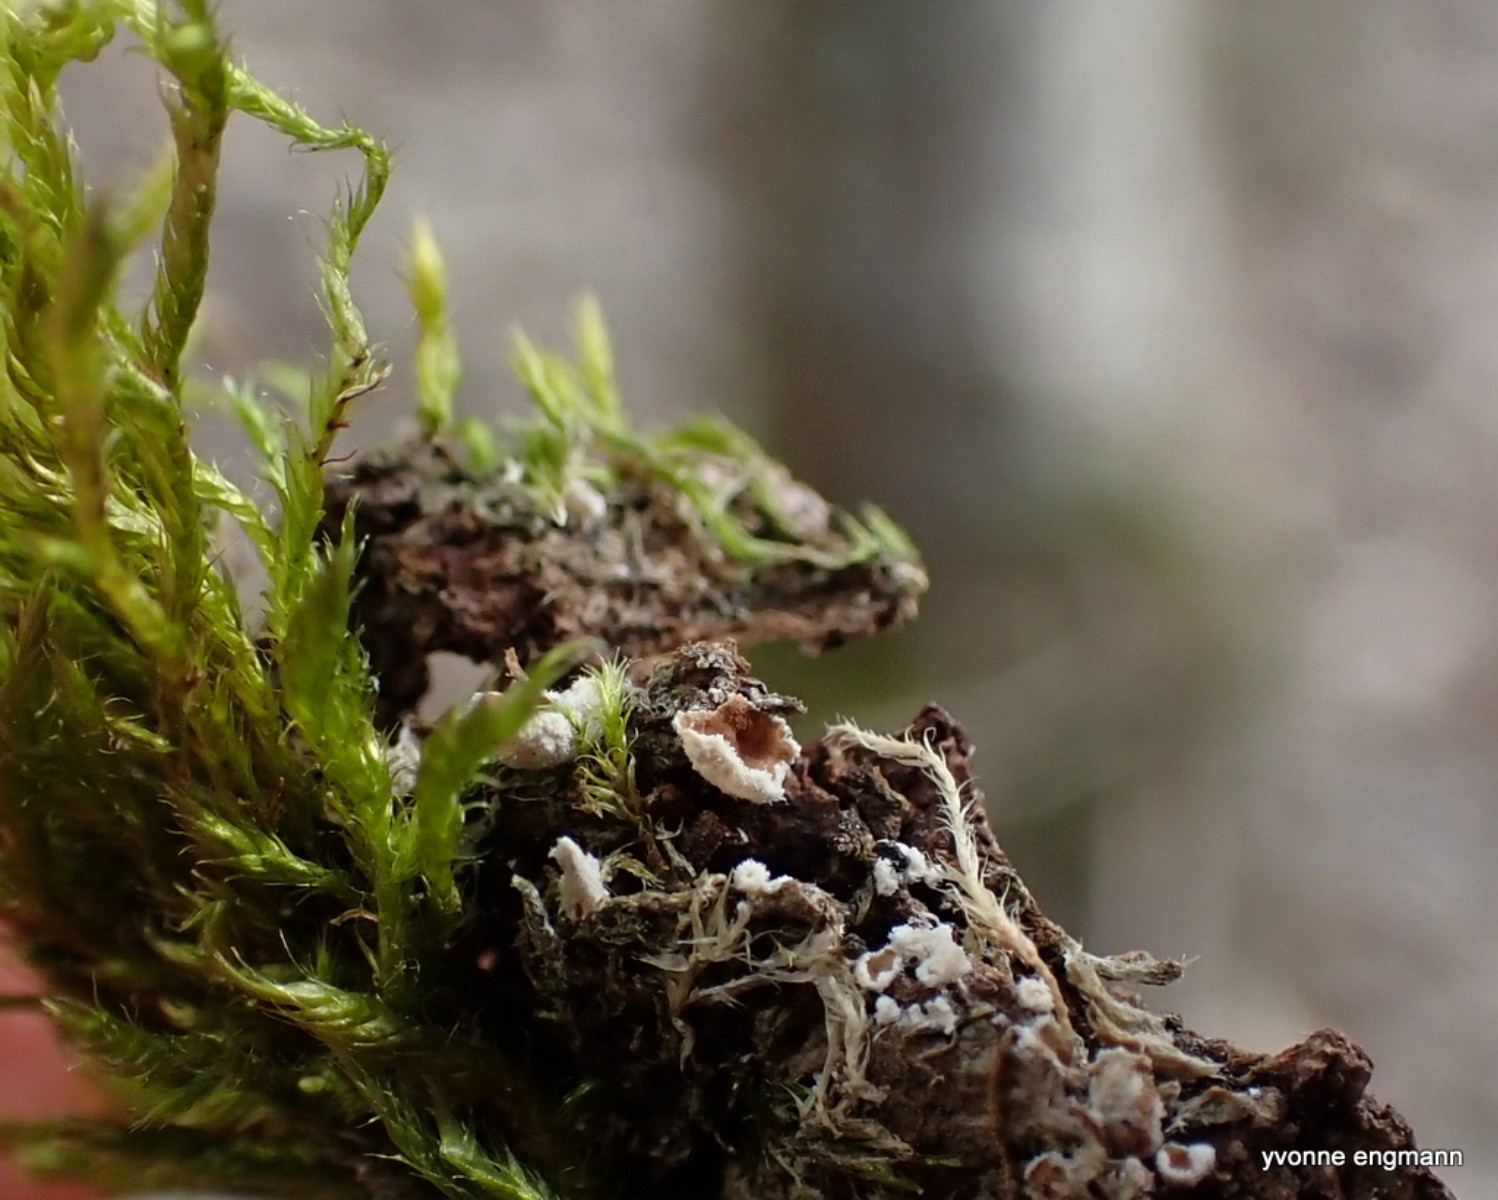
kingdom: Fungi
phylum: Basidiomycota
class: Agaricomycetes
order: Agaricales
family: Chromocyphellaceae
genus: Chromocyphella
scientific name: Chromocyphella muscicola
